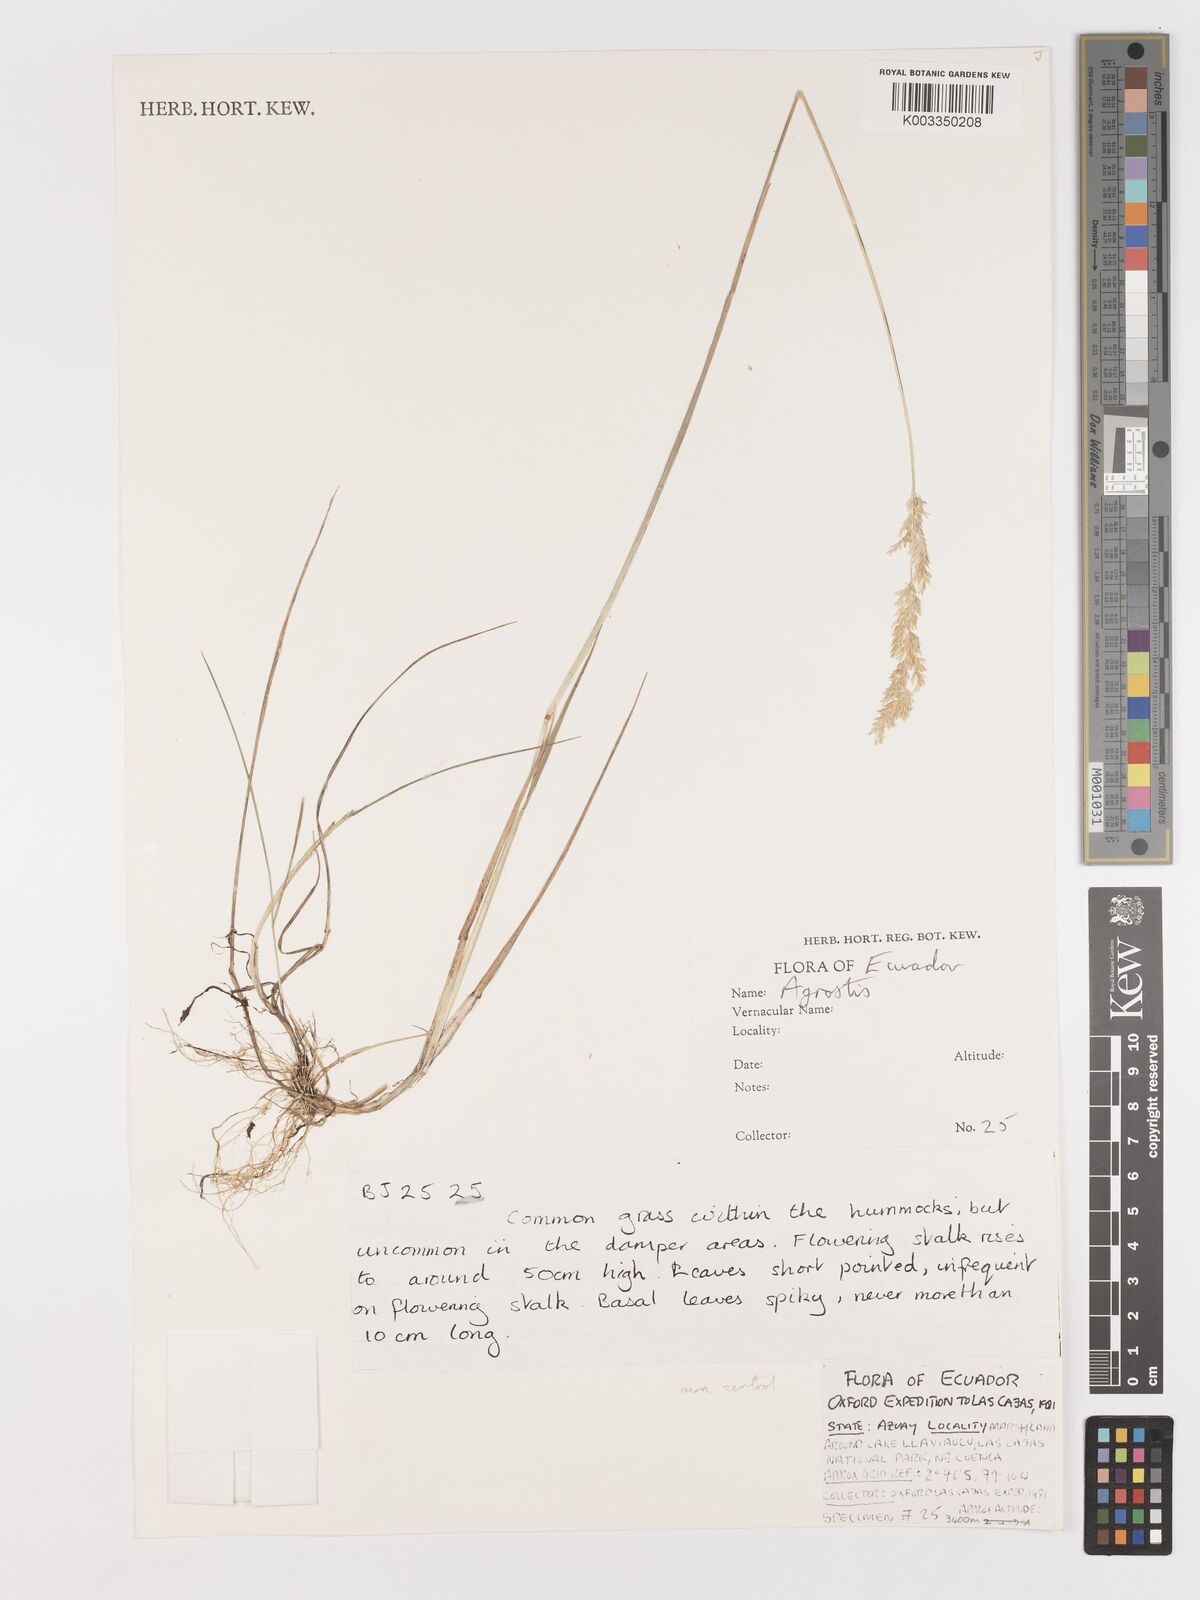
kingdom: Plantae
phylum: Tracheophyta
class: Liliopsida
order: Poales
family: Poaceae
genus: Agrostis
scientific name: Agrostis
